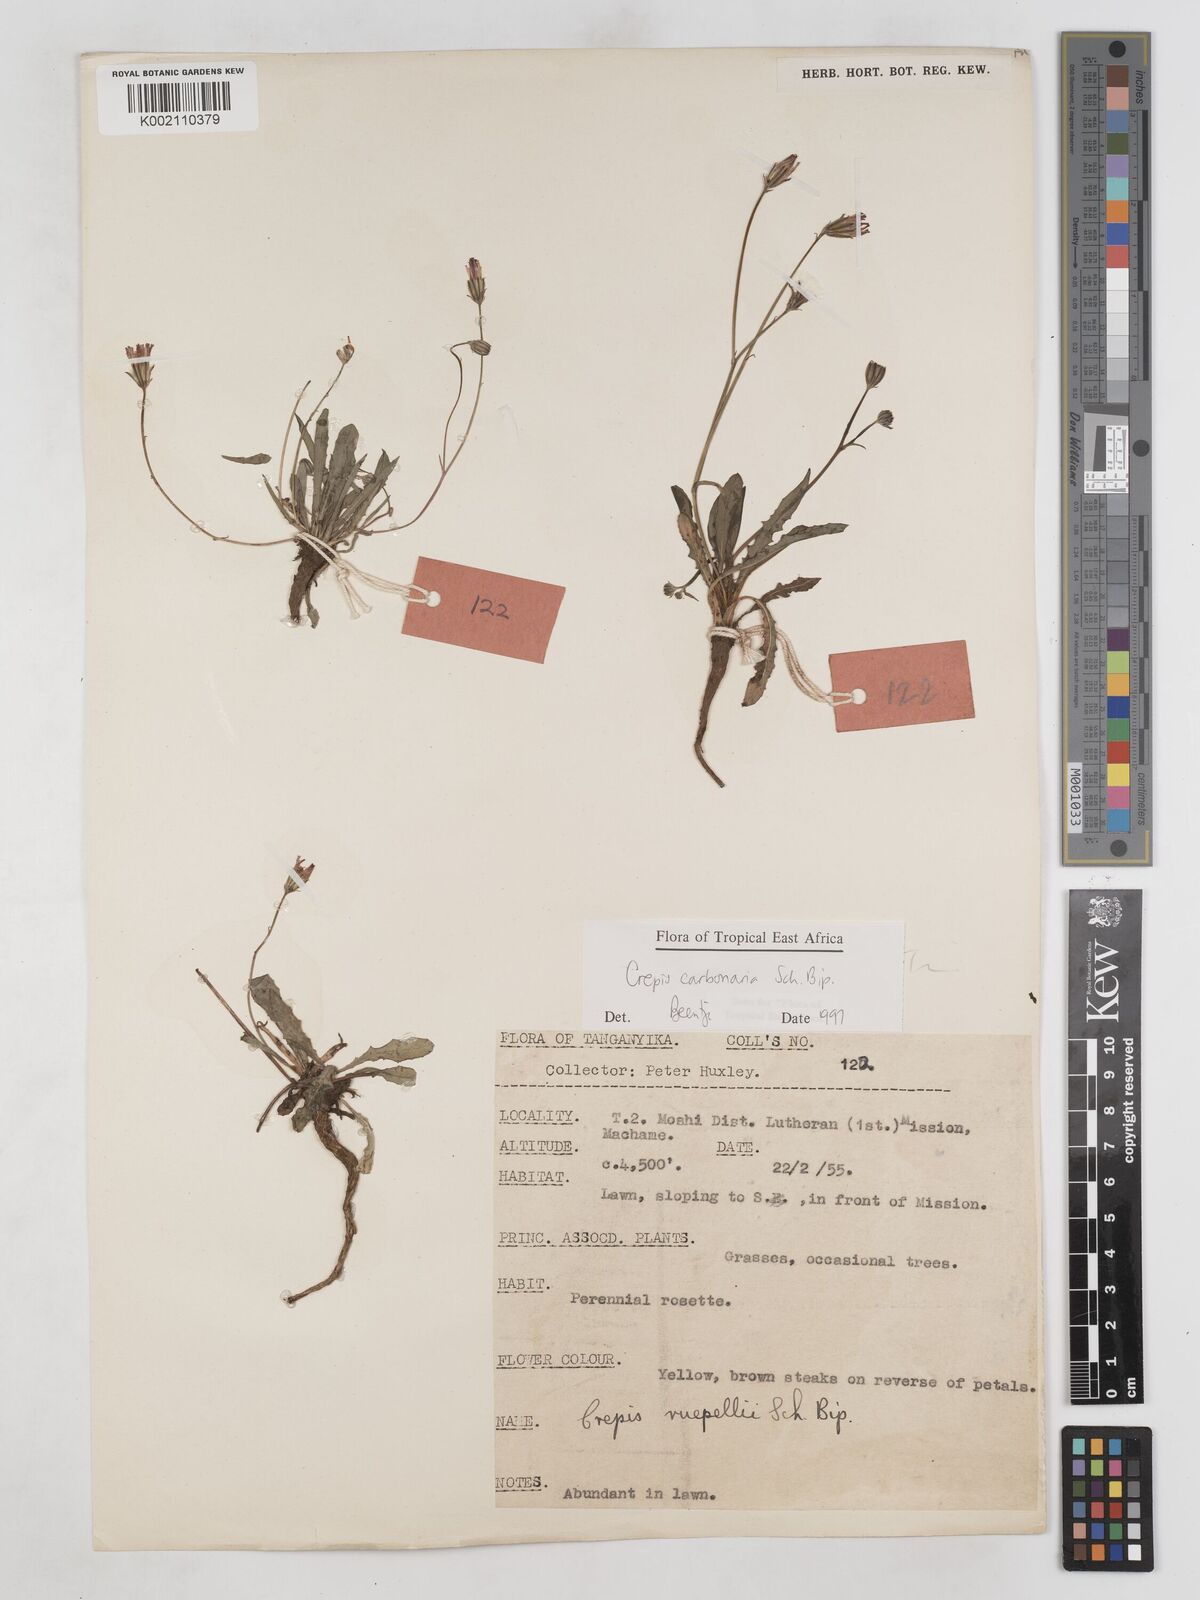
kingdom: Plantae
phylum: Tracheophyta
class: Magnoliopsida
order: Asterales
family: Asteraceae
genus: Crepis
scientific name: Crepis carbonaria
